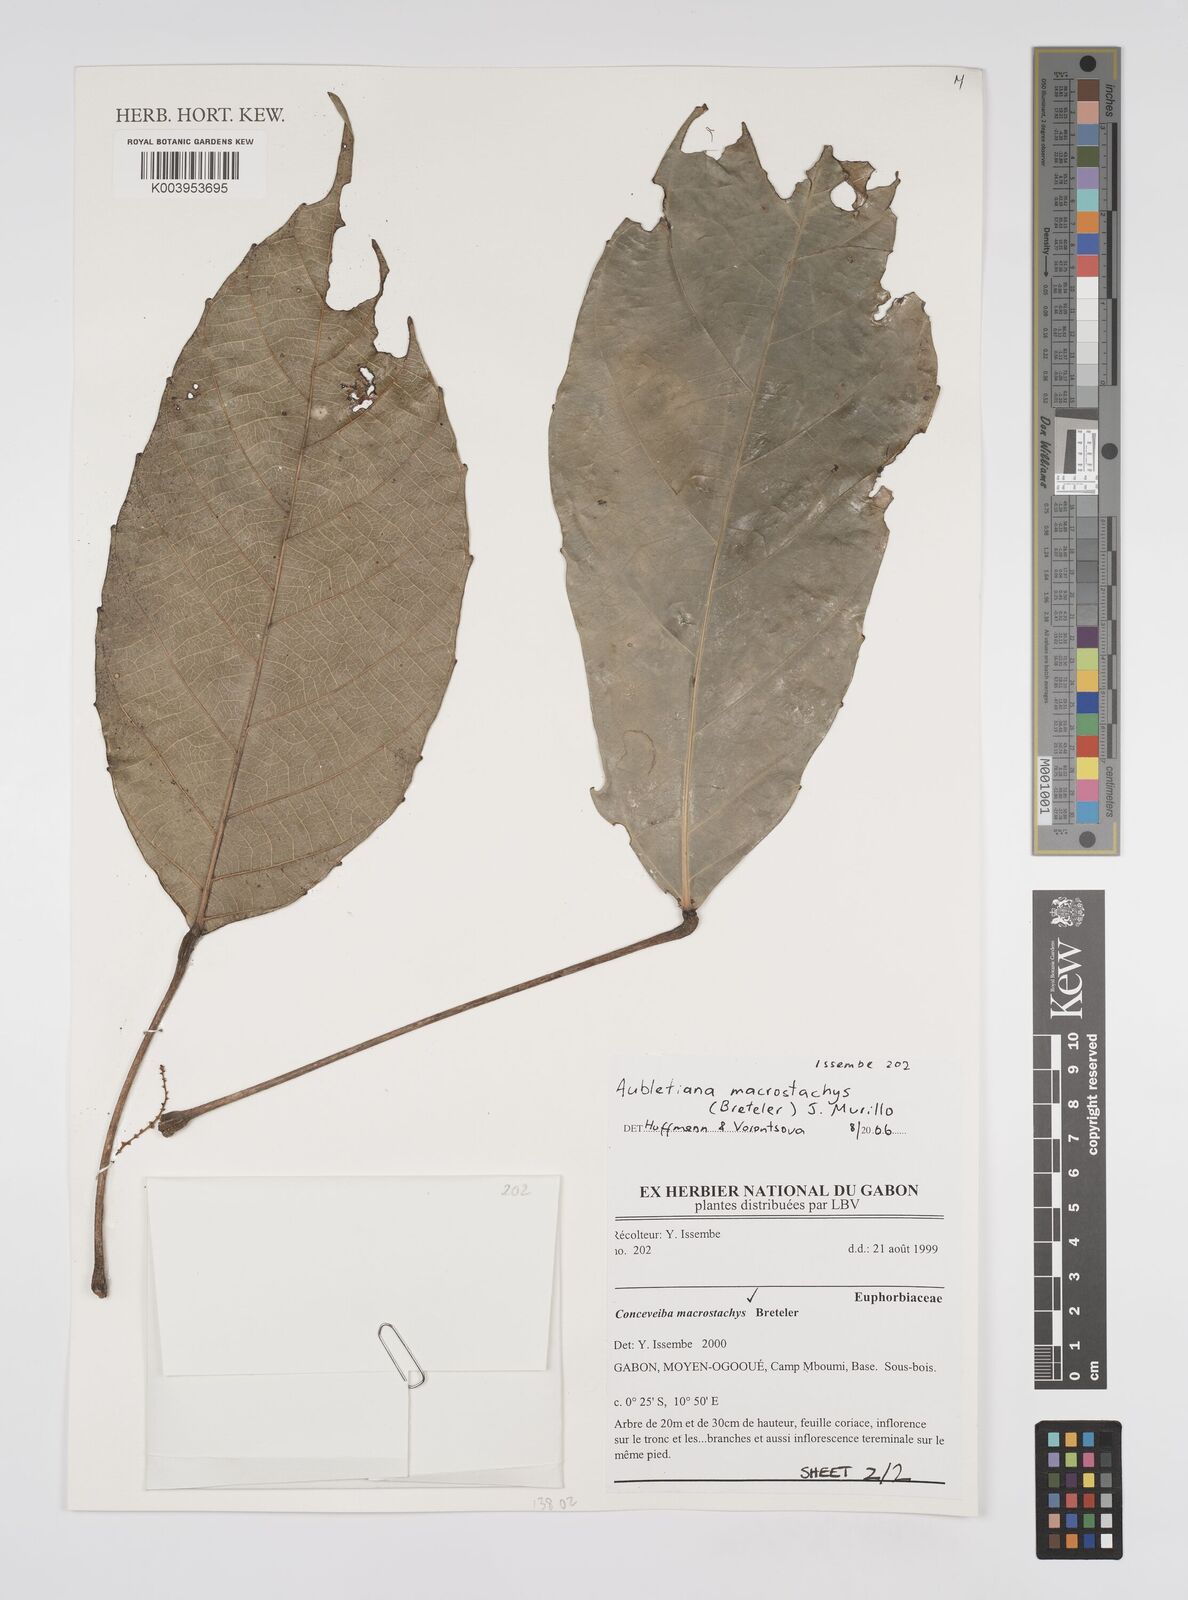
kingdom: Plantae
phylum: Tracheophyta
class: Magnoliopsida
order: Malpighiales
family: Euphorbiaceae
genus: Aubletiana
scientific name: Aubletiana
